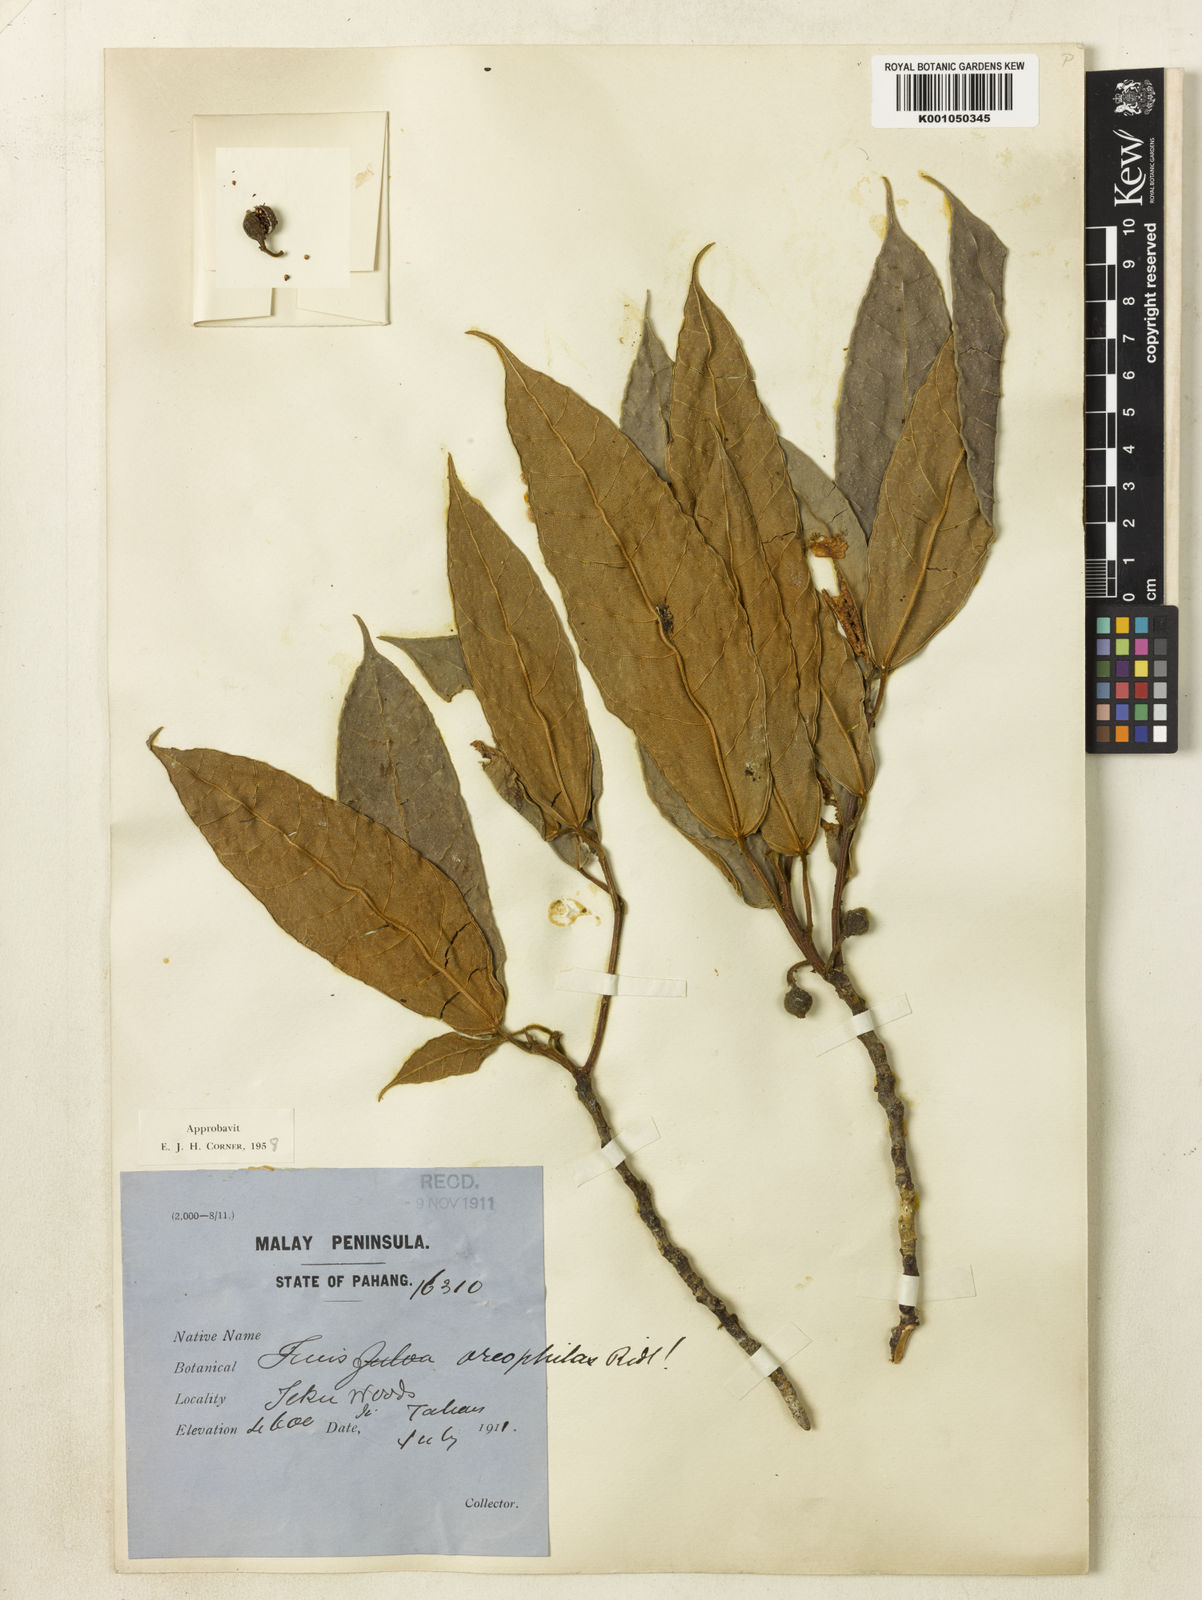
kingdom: Plantae
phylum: Tracheophyta
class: Magnoliopsida
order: Rosales
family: Moraceae
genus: Ficus
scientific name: Ficus oreophila
